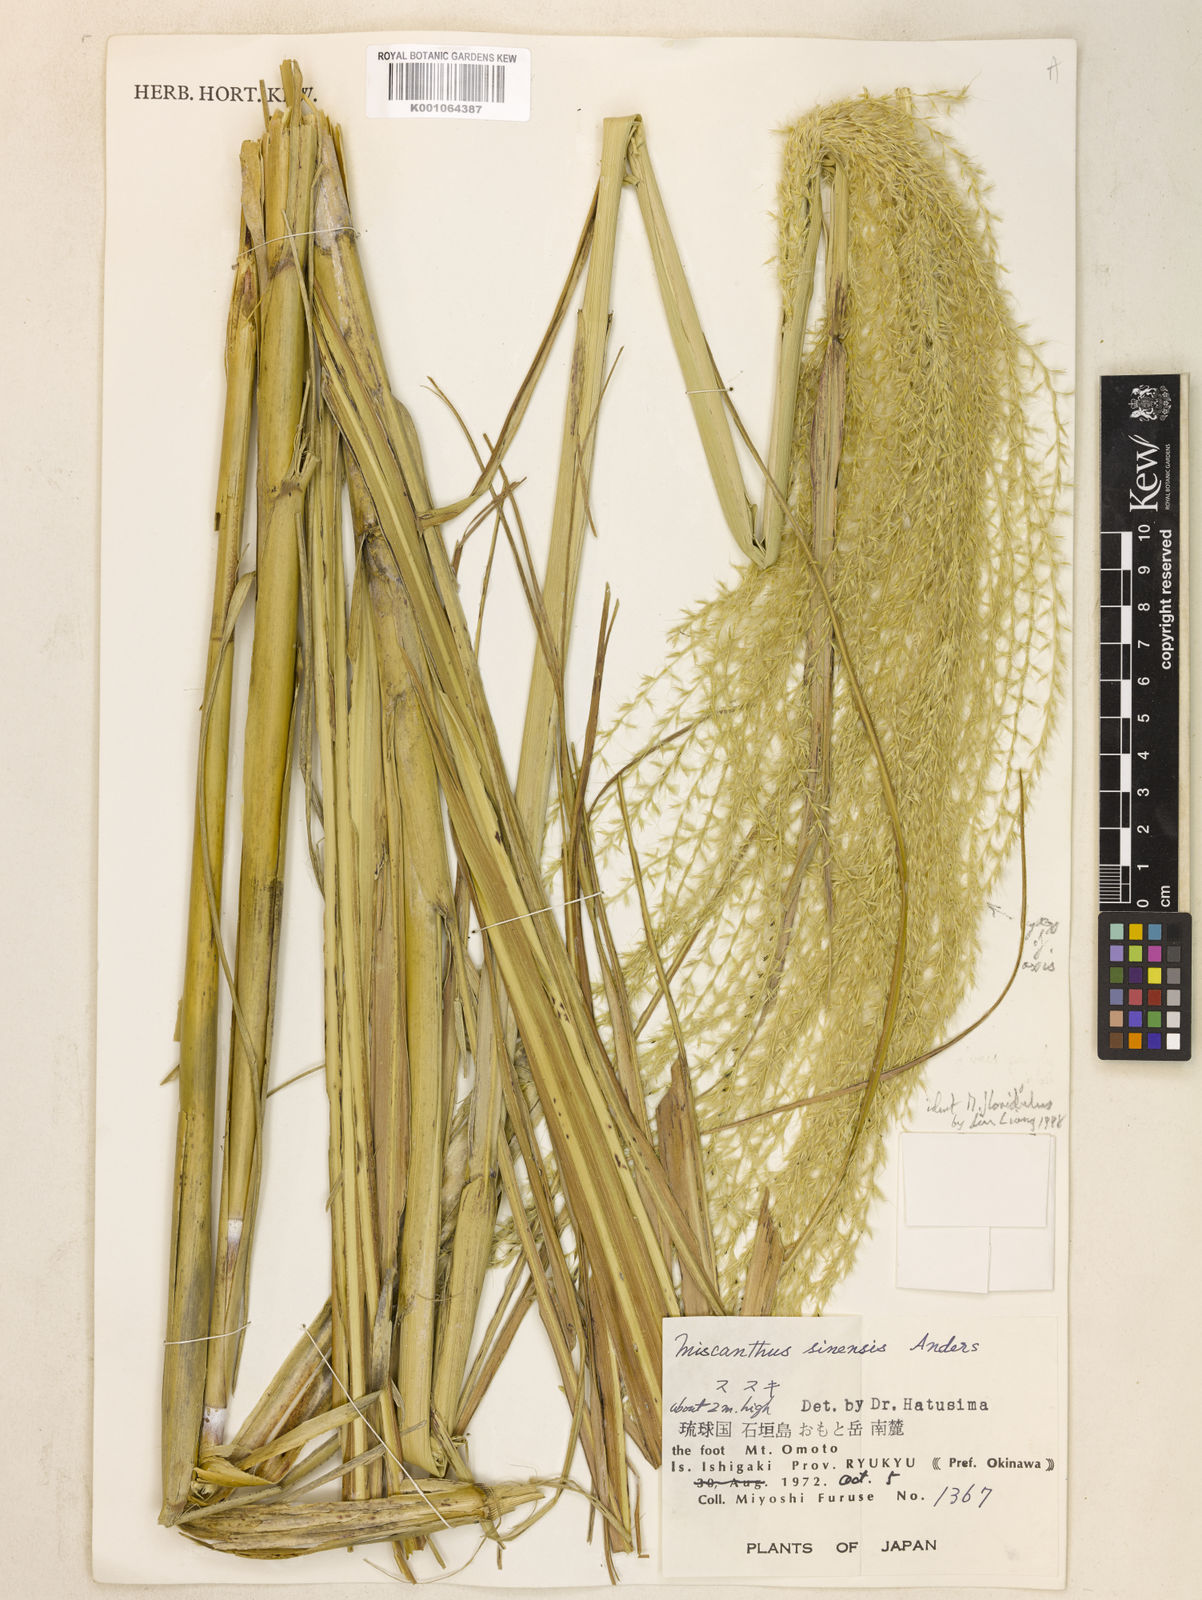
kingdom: Plantae
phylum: Tracheophyta
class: Liliopsida
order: Poales
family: Poaceae
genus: Miscanthus
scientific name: Miscanthus sinensis
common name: Chinese silvergrass
